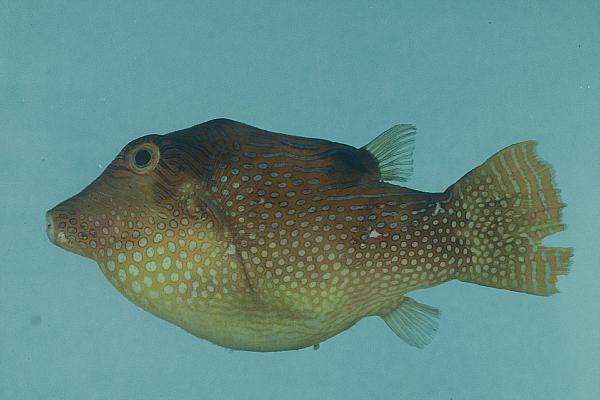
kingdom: Animalia
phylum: Chordata
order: Tetraodontiformes
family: Tetraodontidae
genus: Canthigaster
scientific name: Canthigaster solandri
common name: False-eye toby
